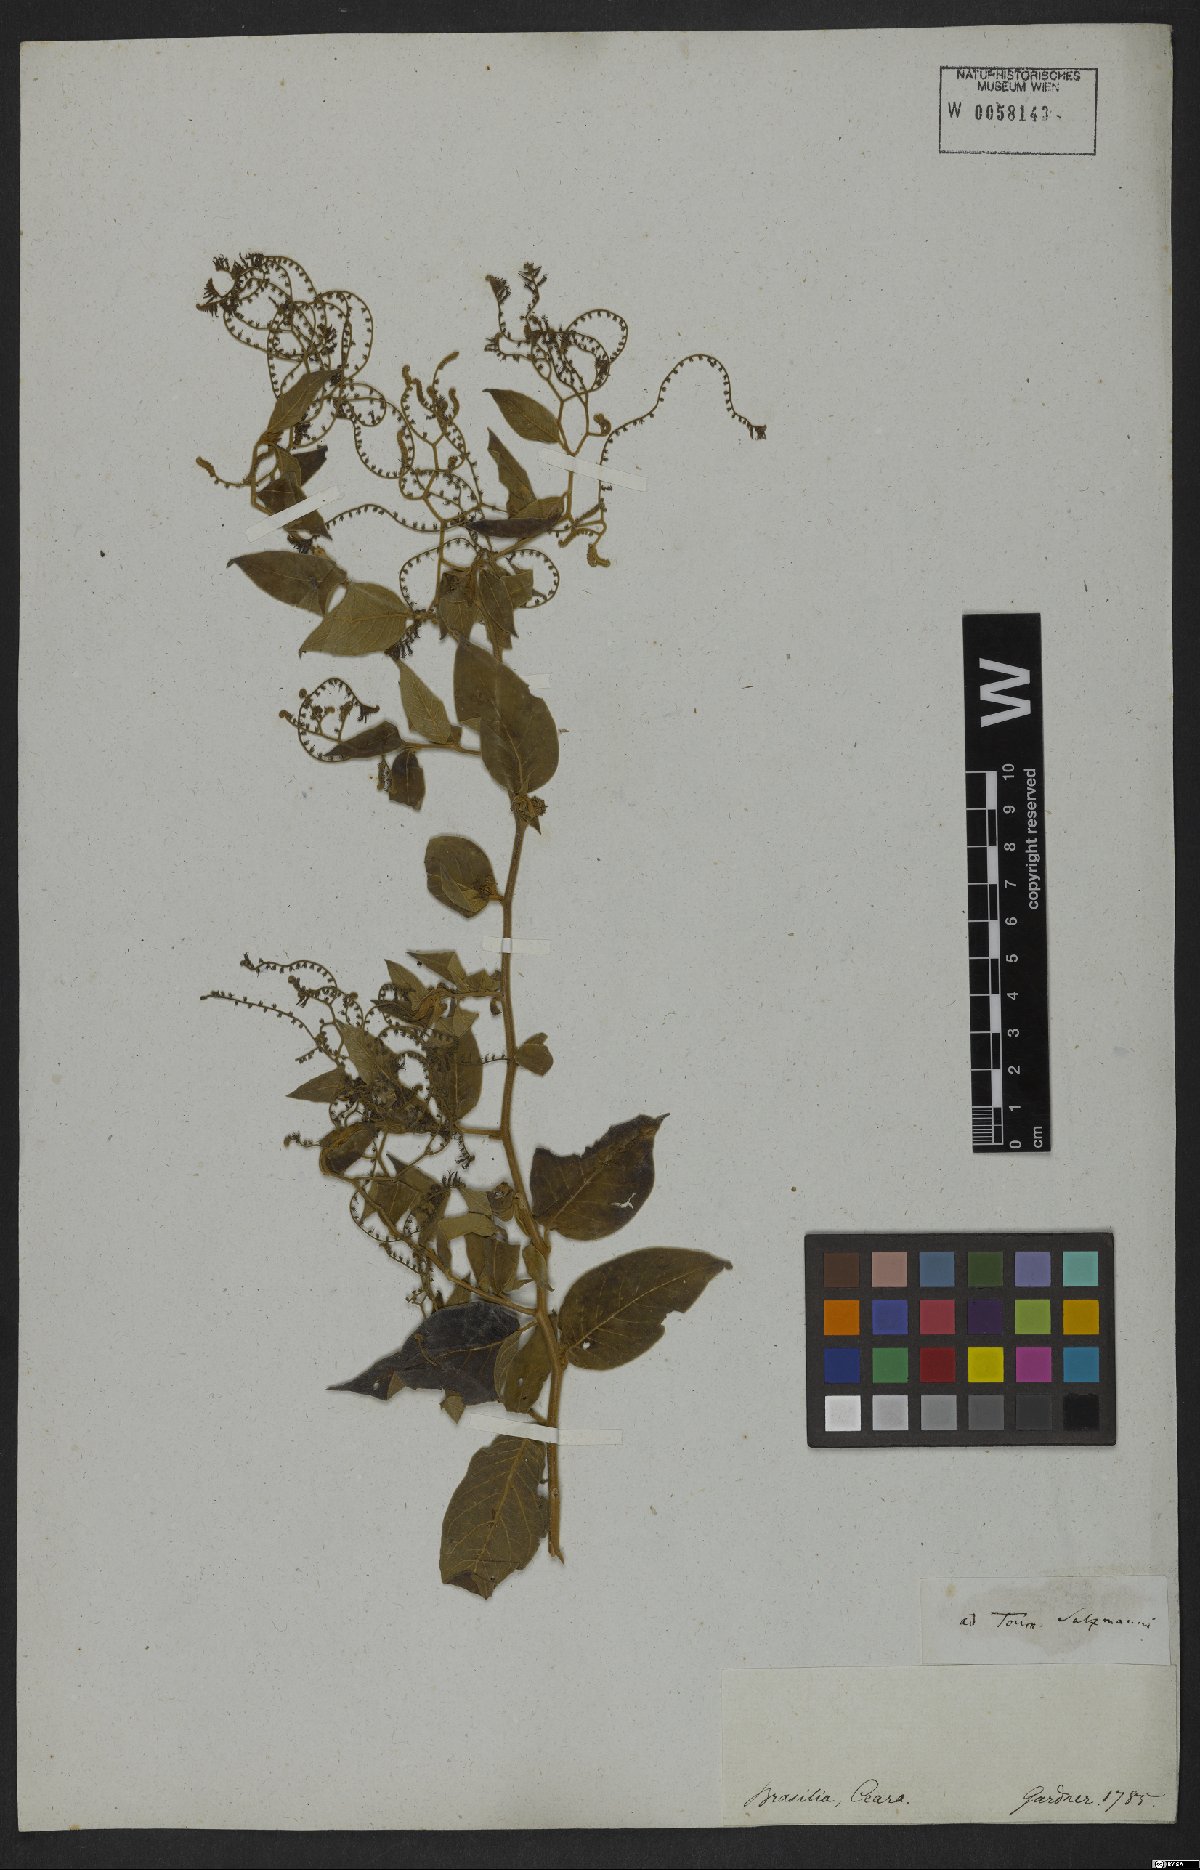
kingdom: Plantae
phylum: Tracheophyta
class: Magnoliopsida
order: Boraginales
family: Heliotropiaceae
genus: Myriopus
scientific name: Myriopus salzmannii
